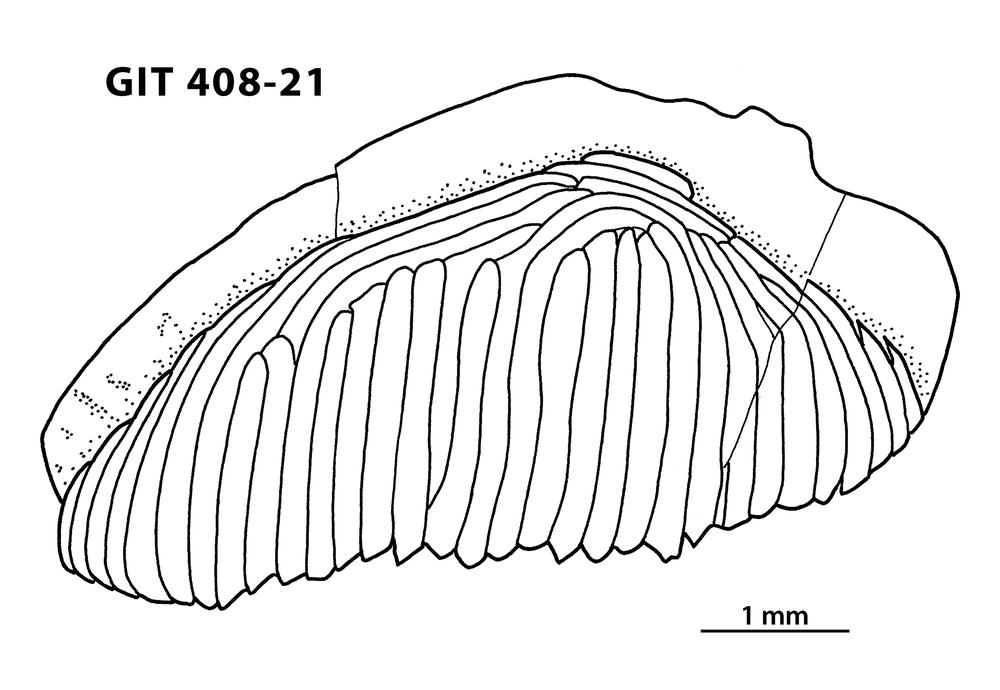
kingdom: Animalia
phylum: Chordata
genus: Archegonaspis
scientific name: Archegonaspis
